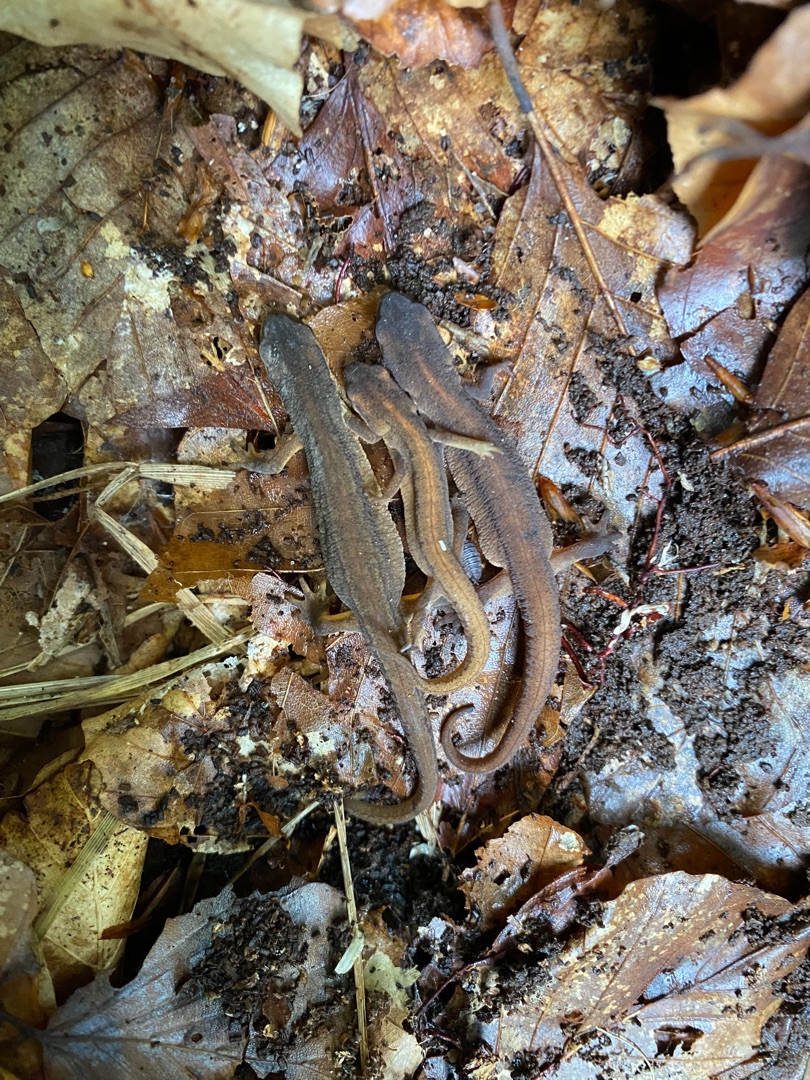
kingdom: Animalia
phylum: Chordata
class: Amphibia
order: Caudata
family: Salamandridae
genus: Lissotriton
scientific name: Lissotriton vulgaris
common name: Lille vandsalamander
